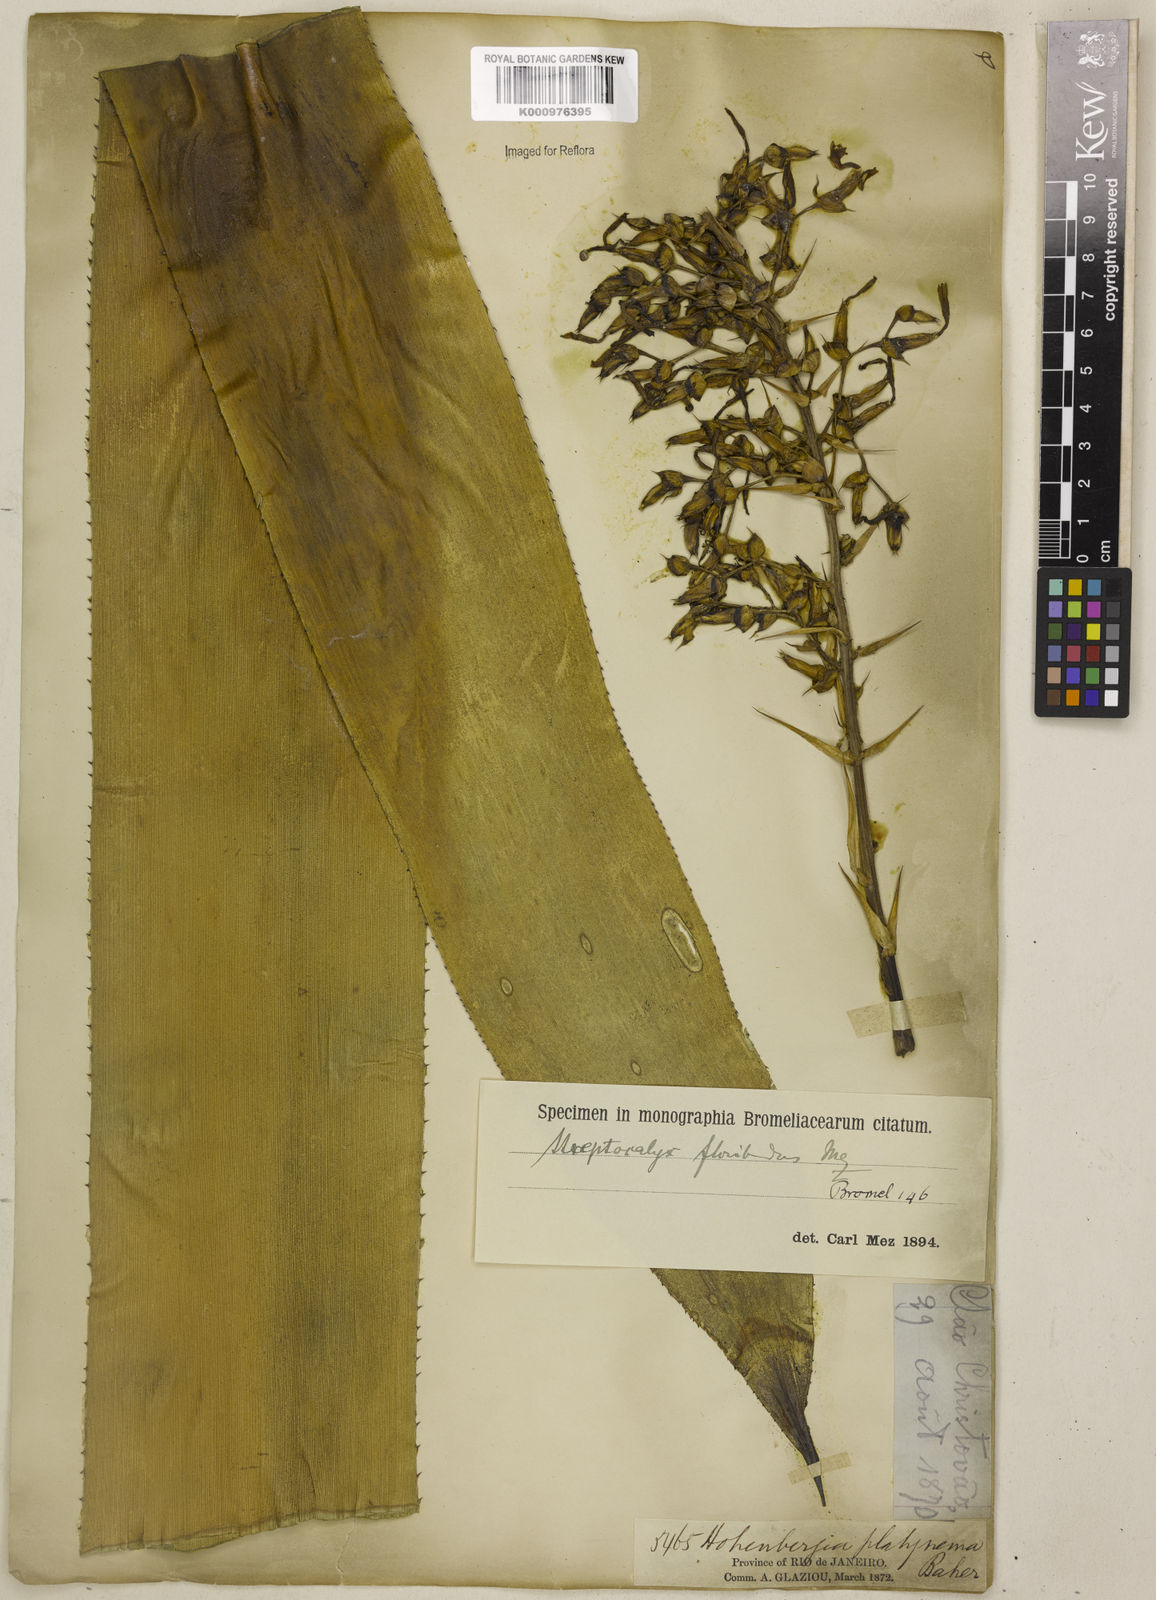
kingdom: Plantae
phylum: Tracheophyta
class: Liliopsida
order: Poales
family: Bromeliaceae
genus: Aechmea
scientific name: Aechmea floribunda
